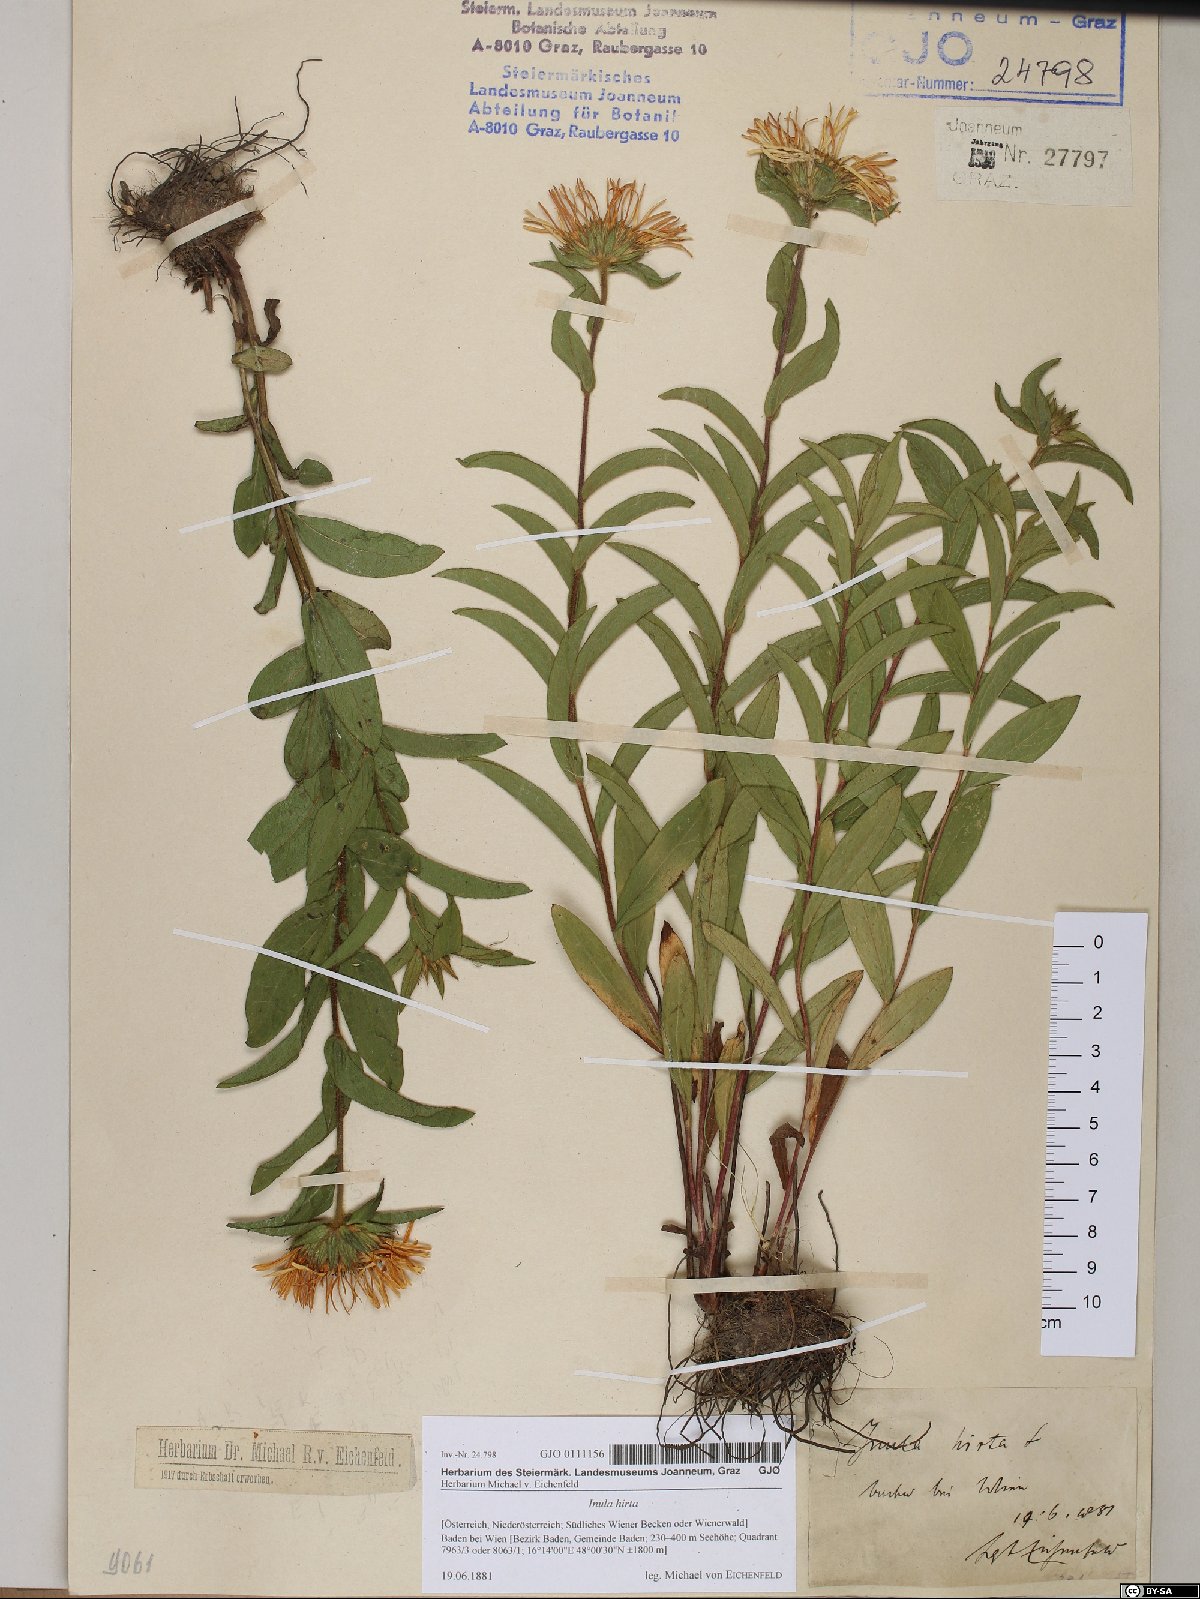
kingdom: Plantae
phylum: Tracheophyta
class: Magnoliopsida
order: Asterales
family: Asteraceae
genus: Pentanema
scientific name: Pentanema hirtum
